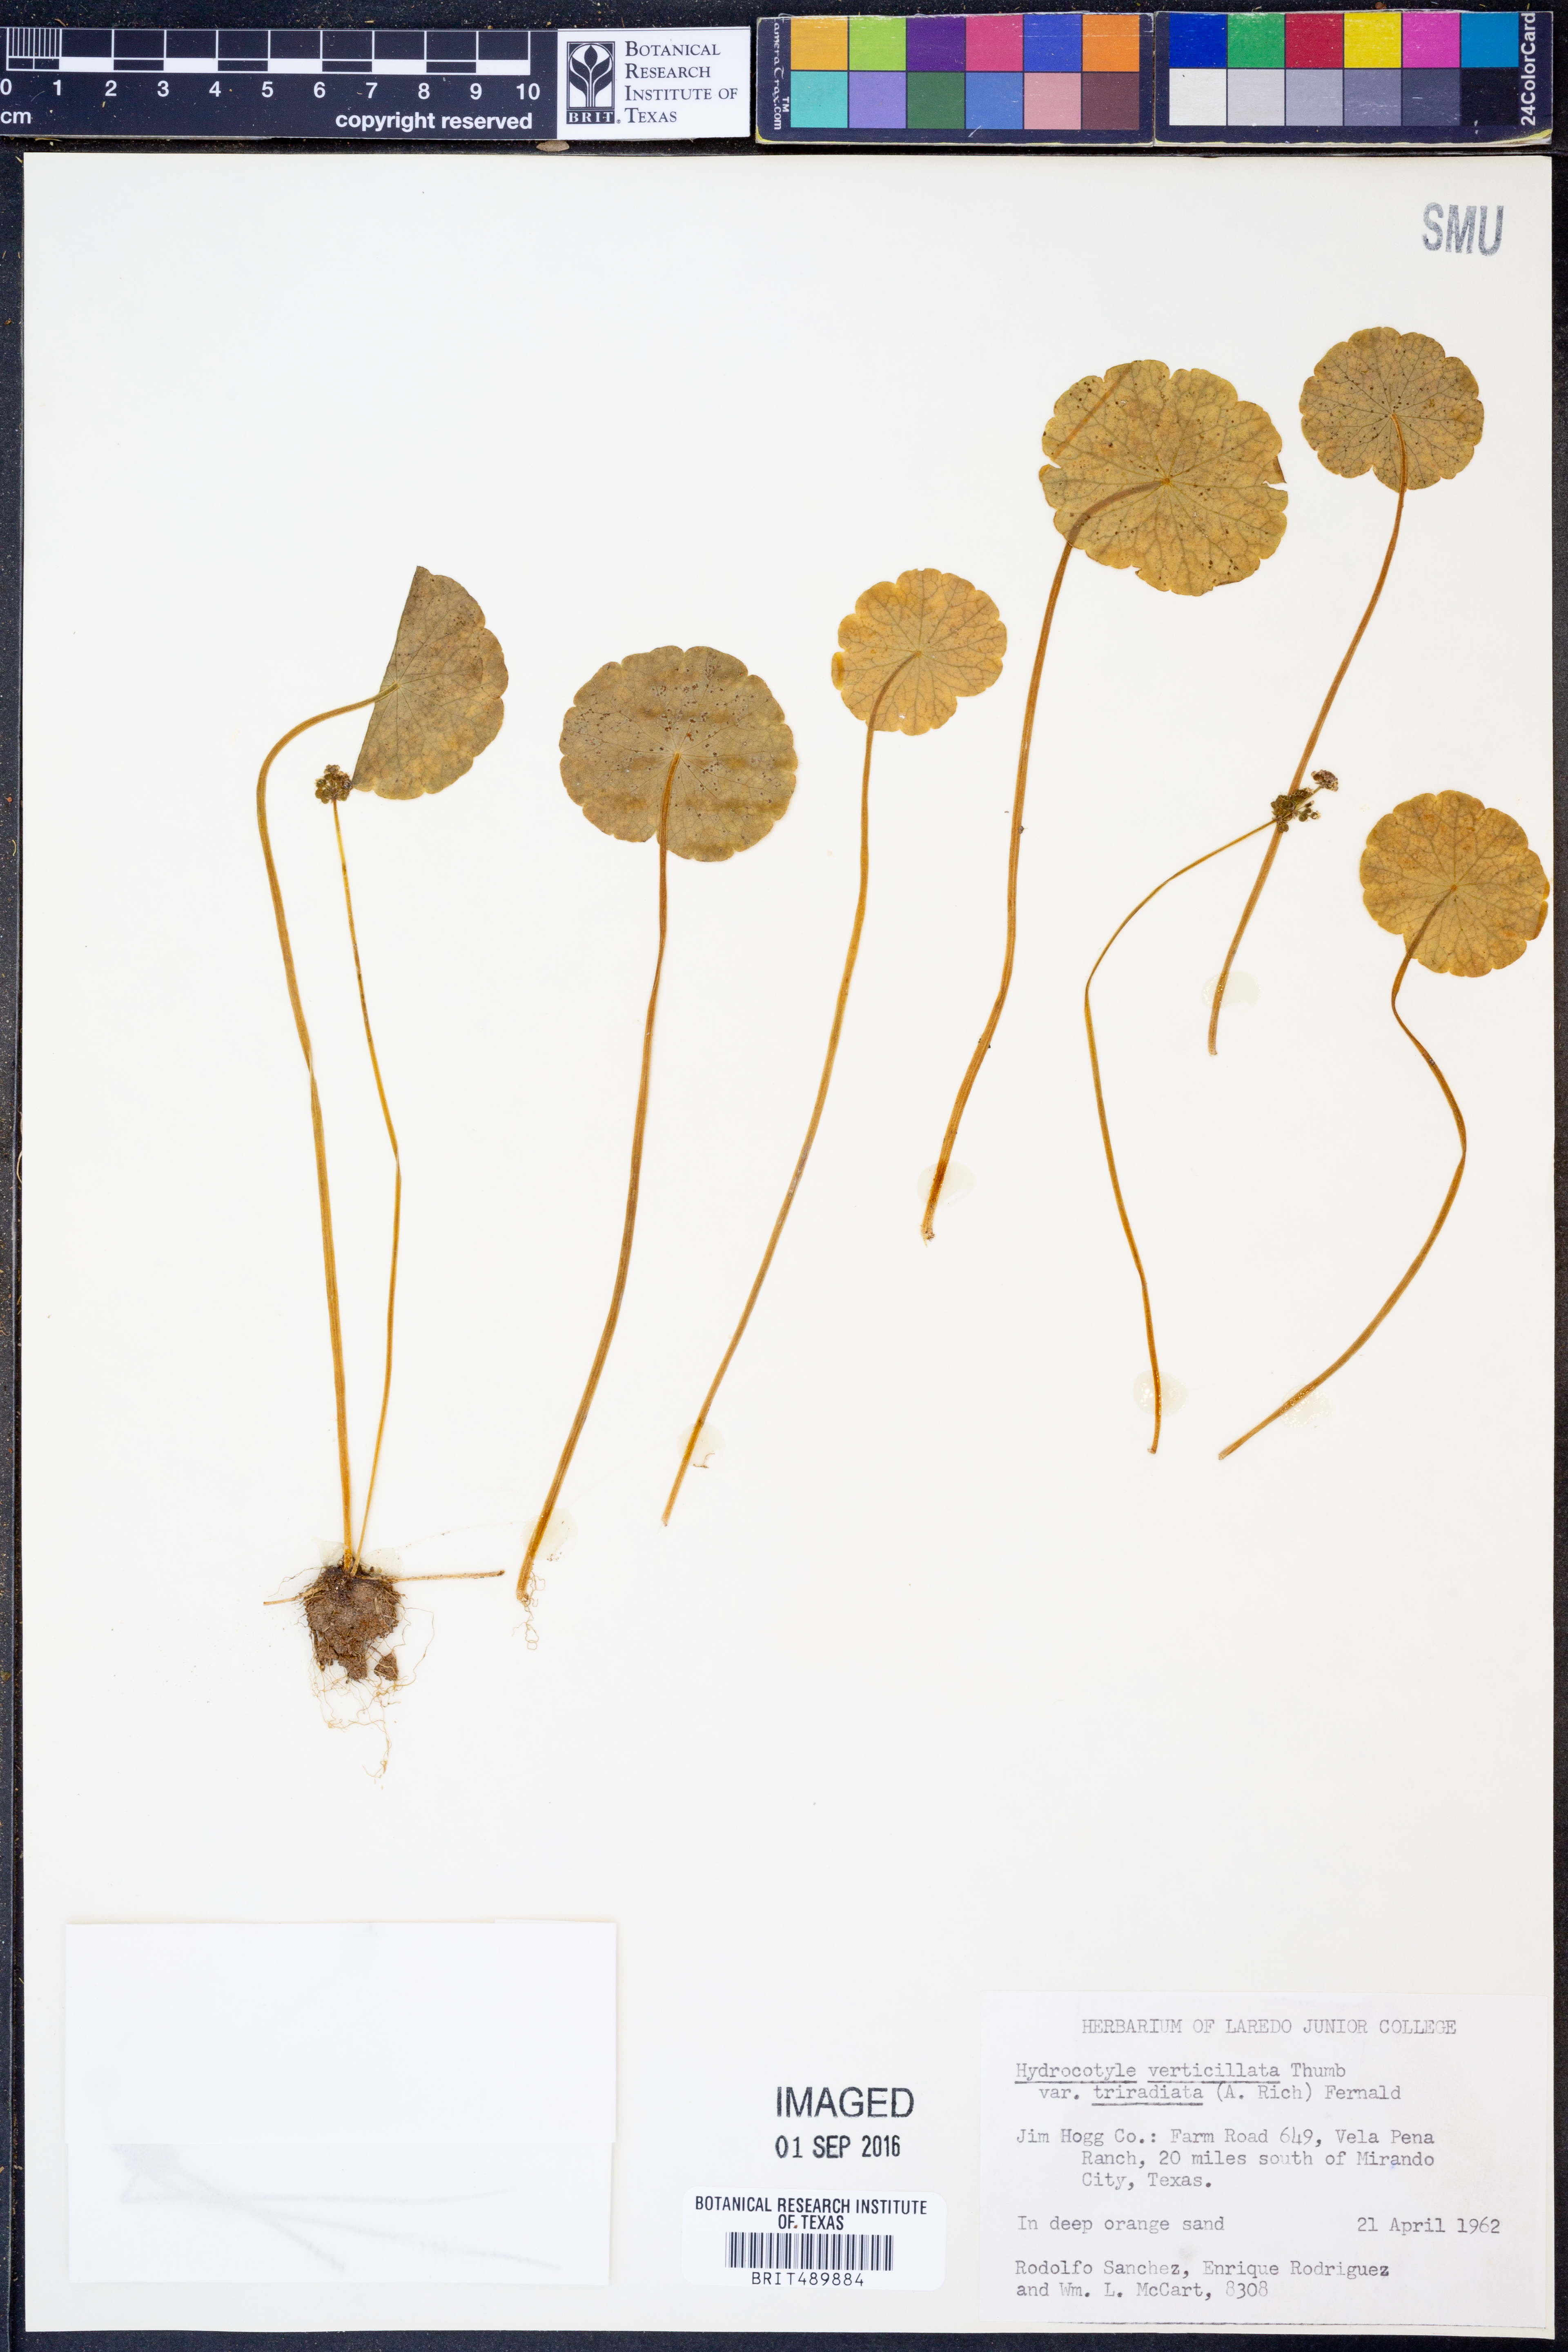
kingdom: Plantae
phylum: Tracheophyta
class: Magnoliopsida
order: Apiales
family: Araliaceae
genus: Hydrocotyle
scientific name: Hydrocotyle bonariensis
